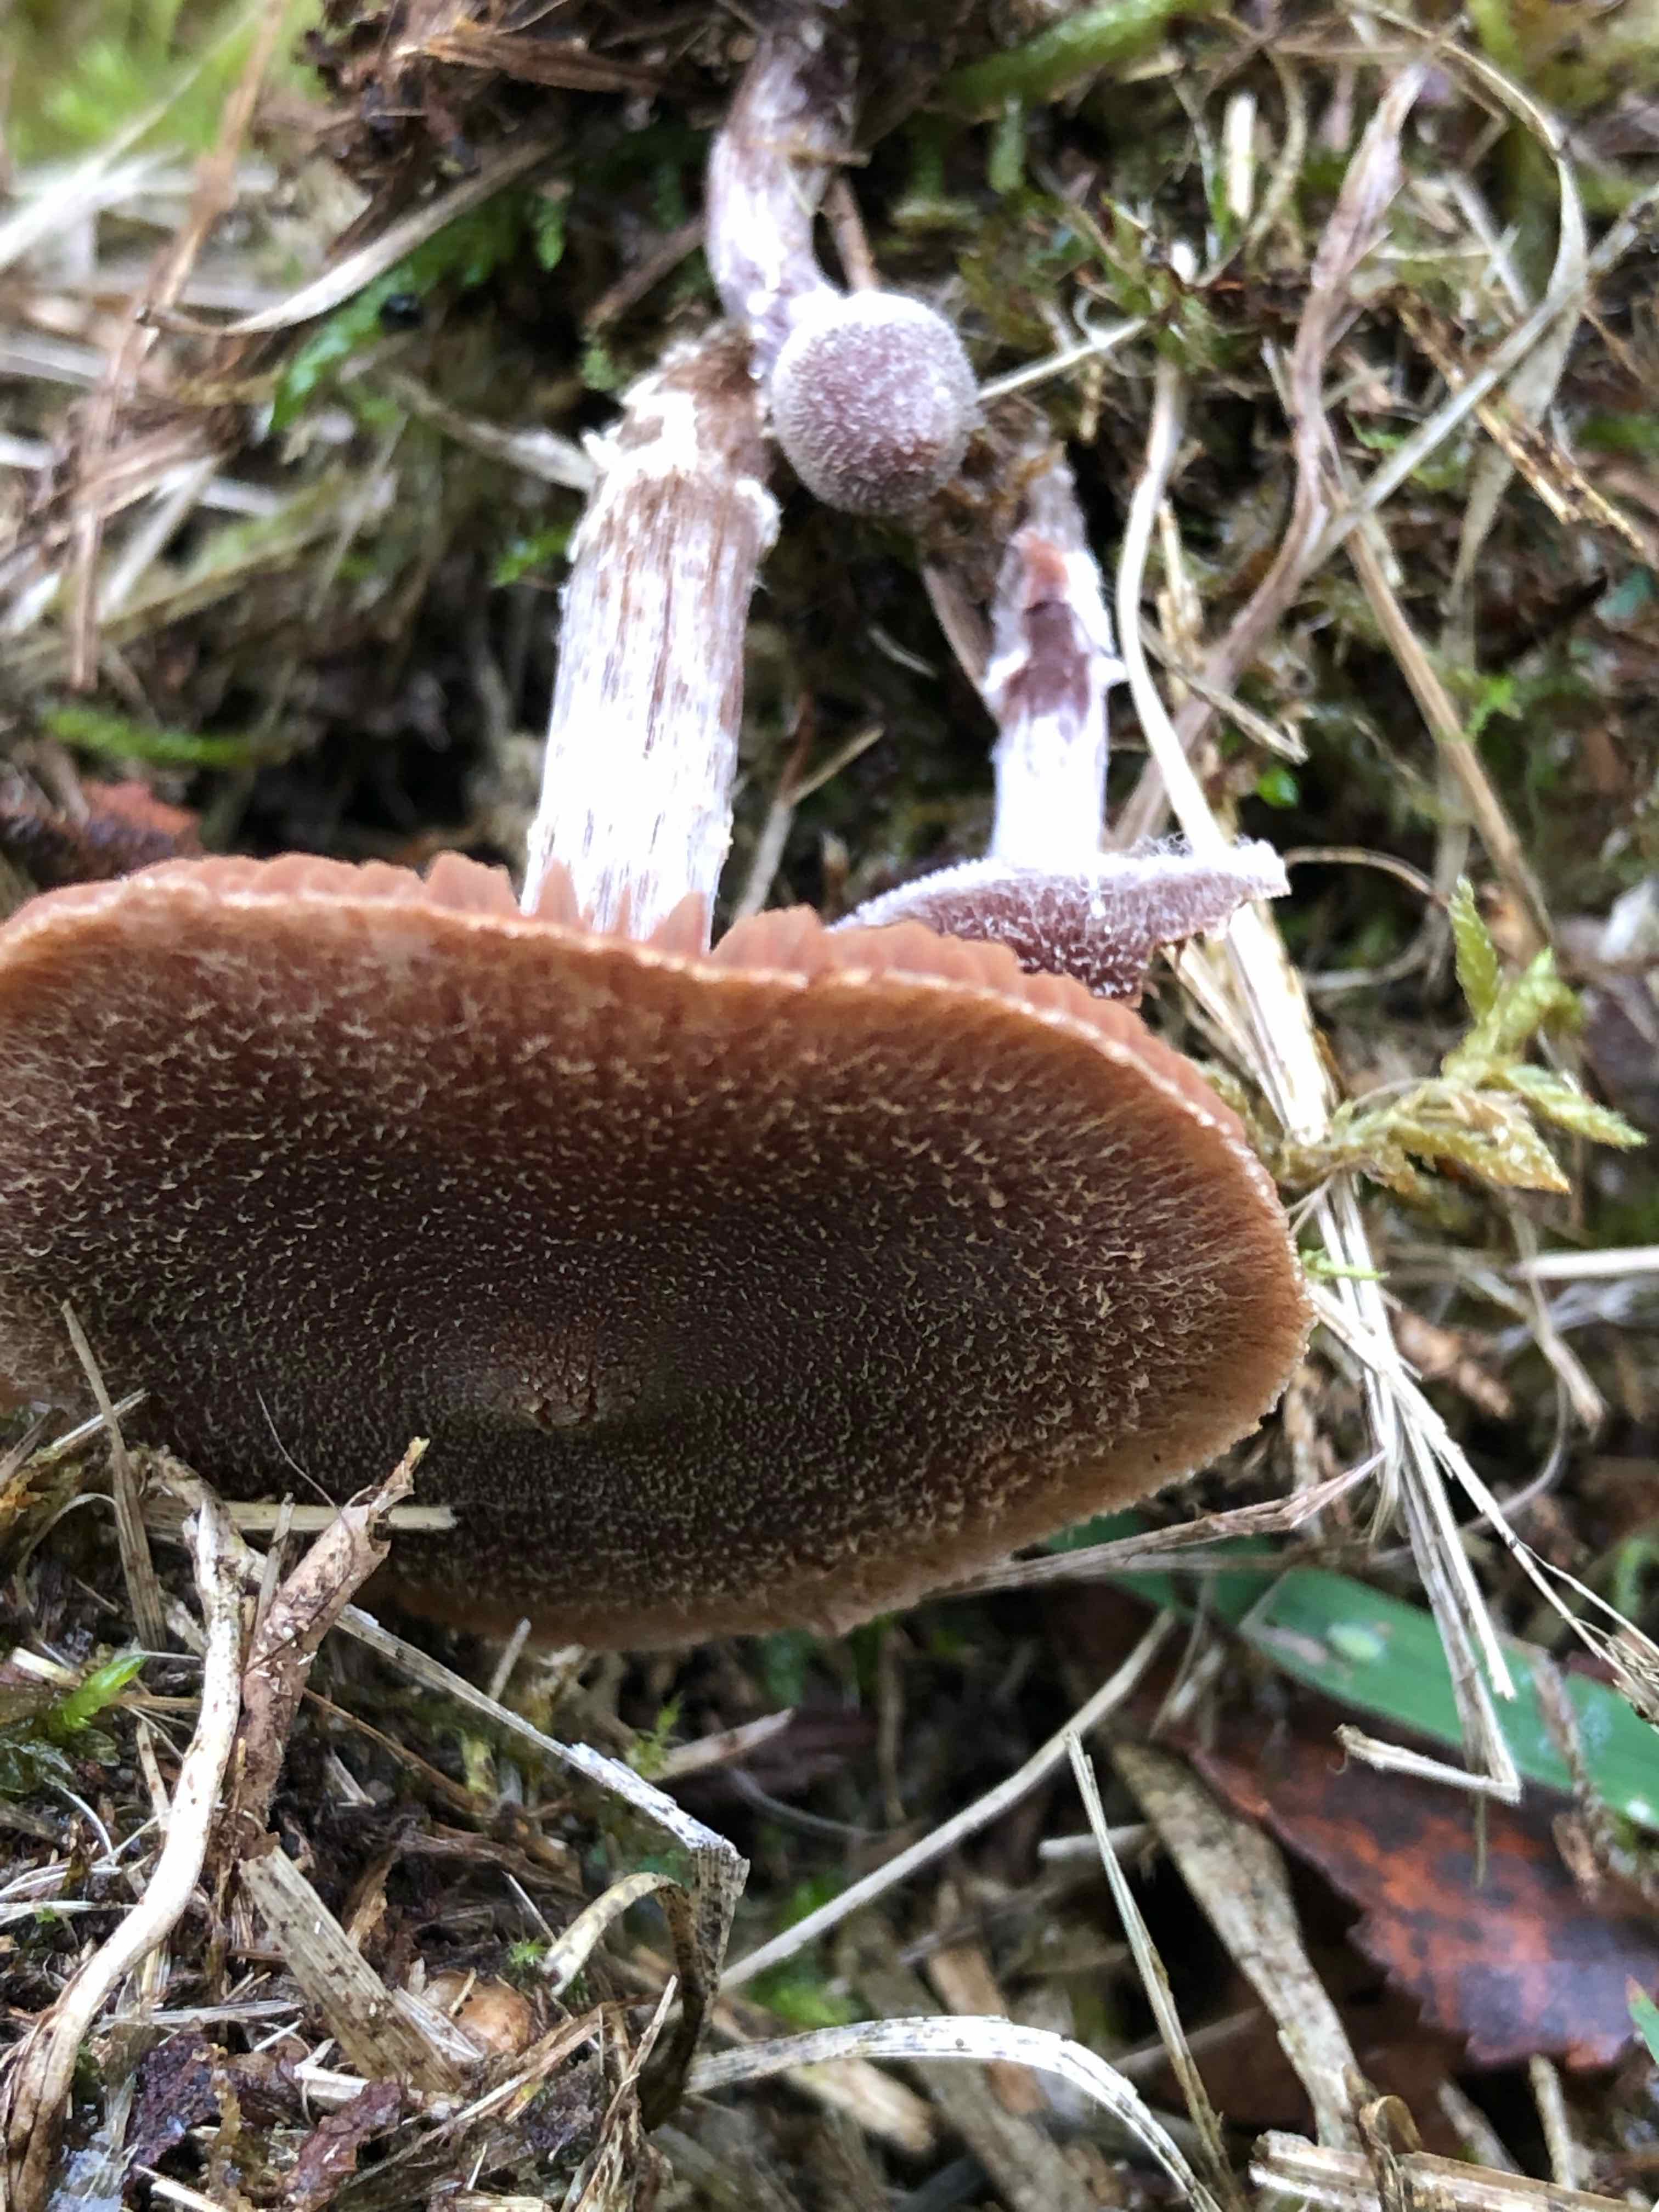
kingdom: Fungi
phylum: Basidiomycota
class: Agaricomycetes
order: Agaricales
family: Cortinariaceae
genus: Cortinarius
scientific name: Cortinarius
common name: pelargonie-slørhat
